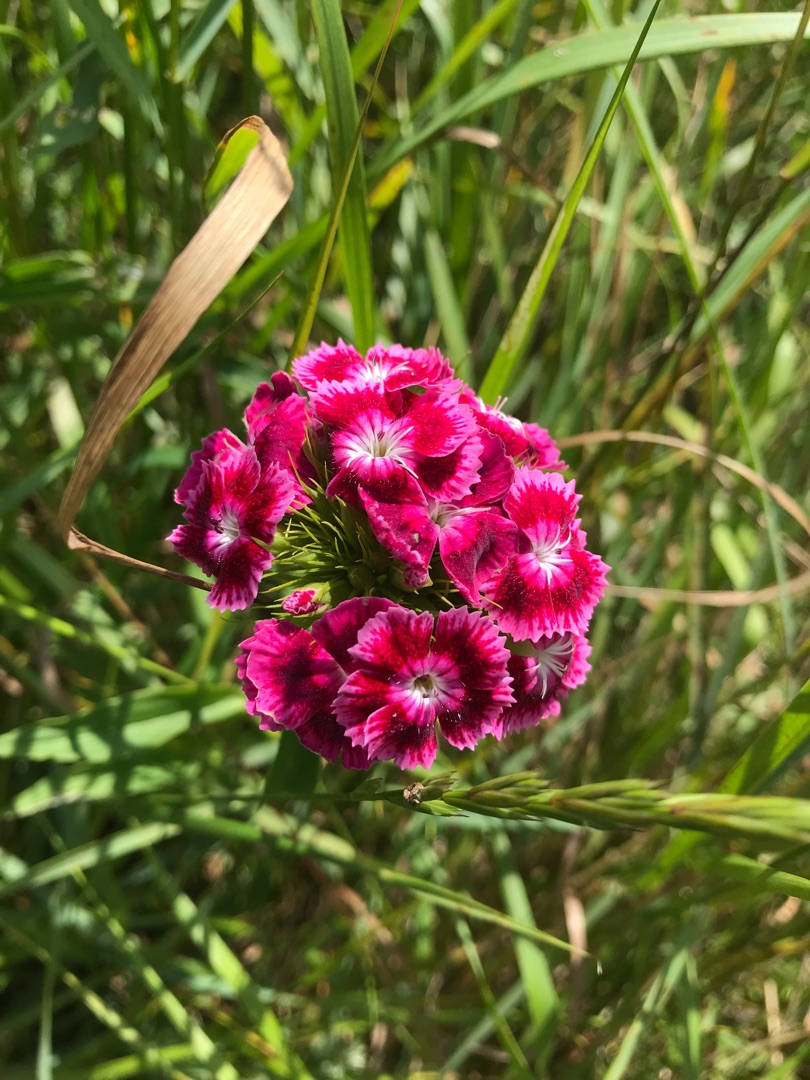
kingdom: Plantae
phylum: Tracheophyta
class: Magnoliopsida
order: Caryophyllales
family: Caryophyllaceae
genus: Dianthus
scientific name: Dianthus barbatus
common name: Studenter-nellike
